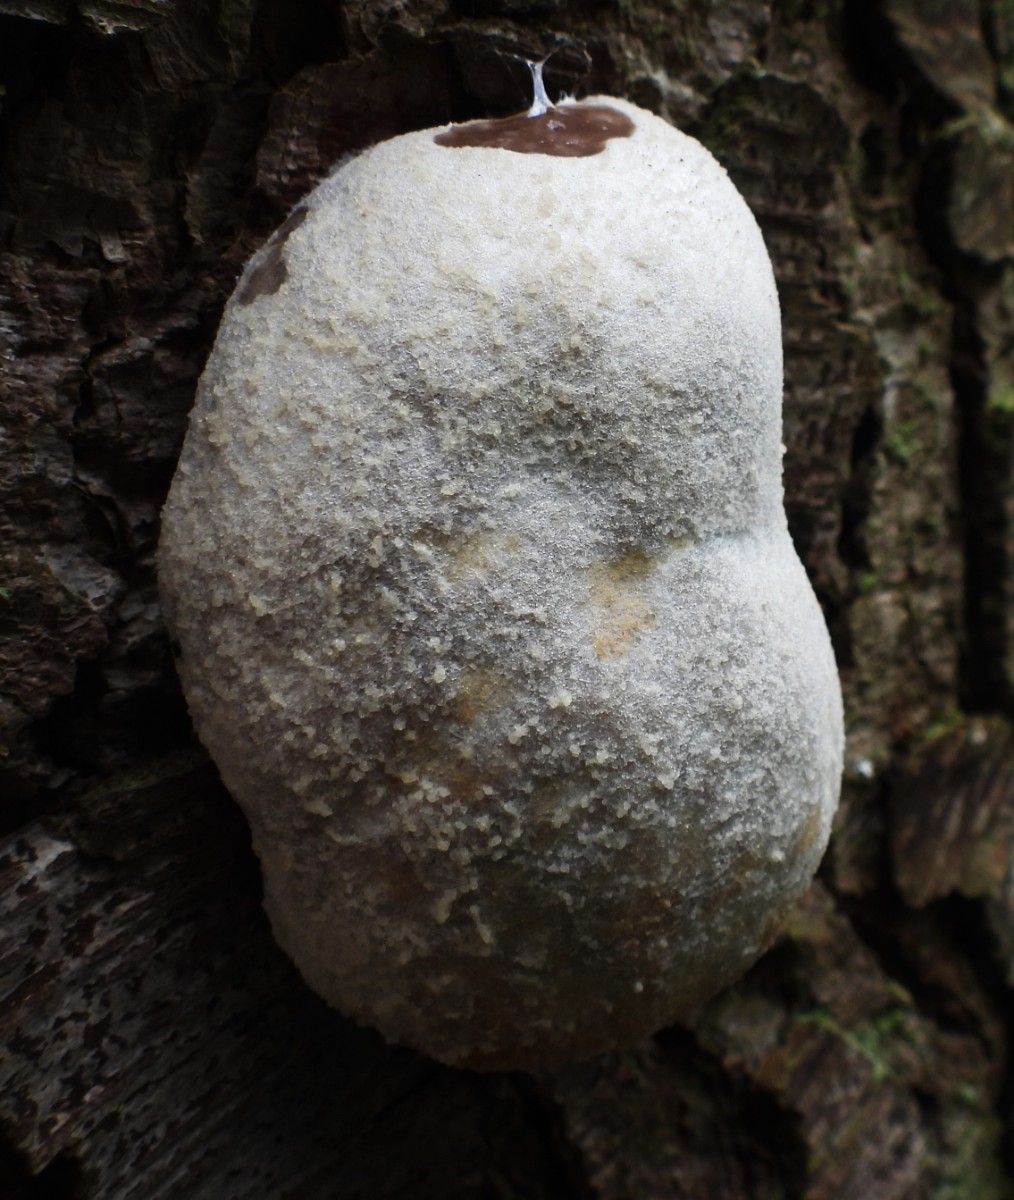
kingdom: Protozoa
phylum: Mycetozoa
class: Myxomycetes
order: Cribrariales
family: Tubiferaceae
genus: Reticularia
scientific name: Reticularia lycoperdon
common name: skinnende støvpude
